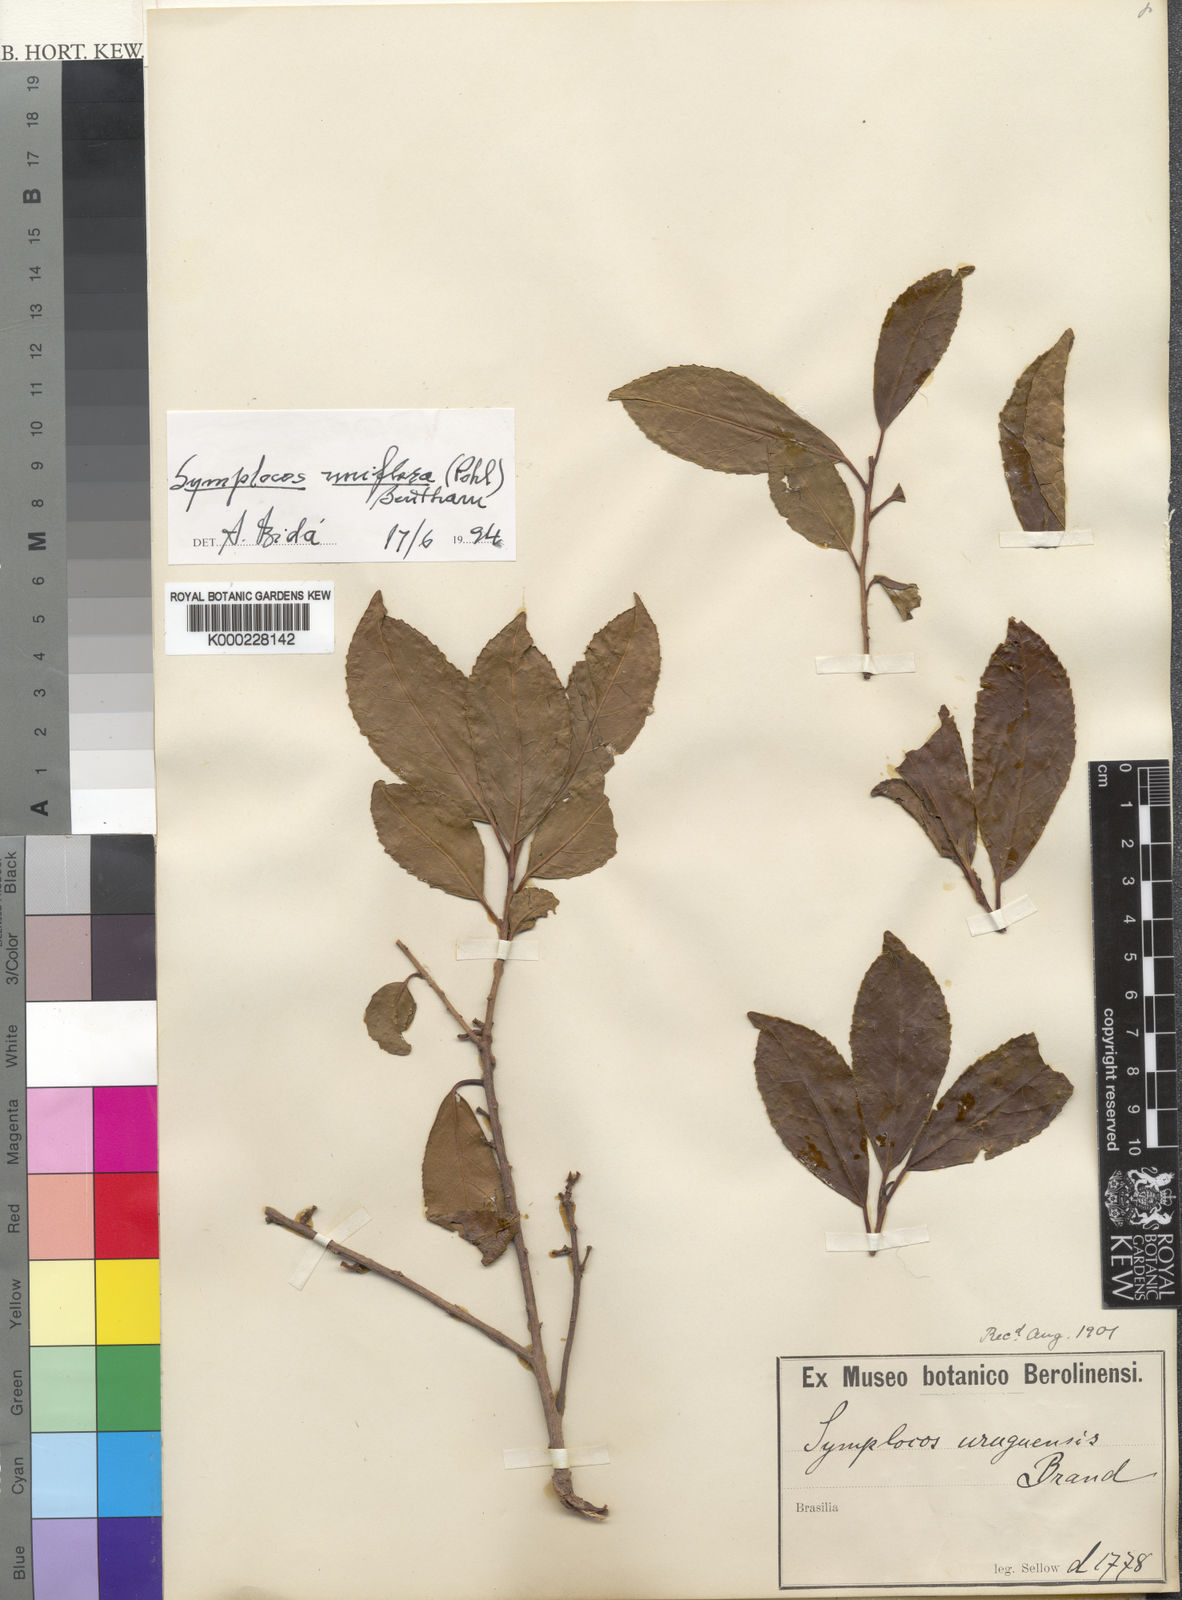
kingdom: Plantae
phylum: Tracheophyta
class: Magnoliopsida
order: Ericales
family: Symplocaceae
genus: Symplocos
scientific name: Symplocos uniflora
